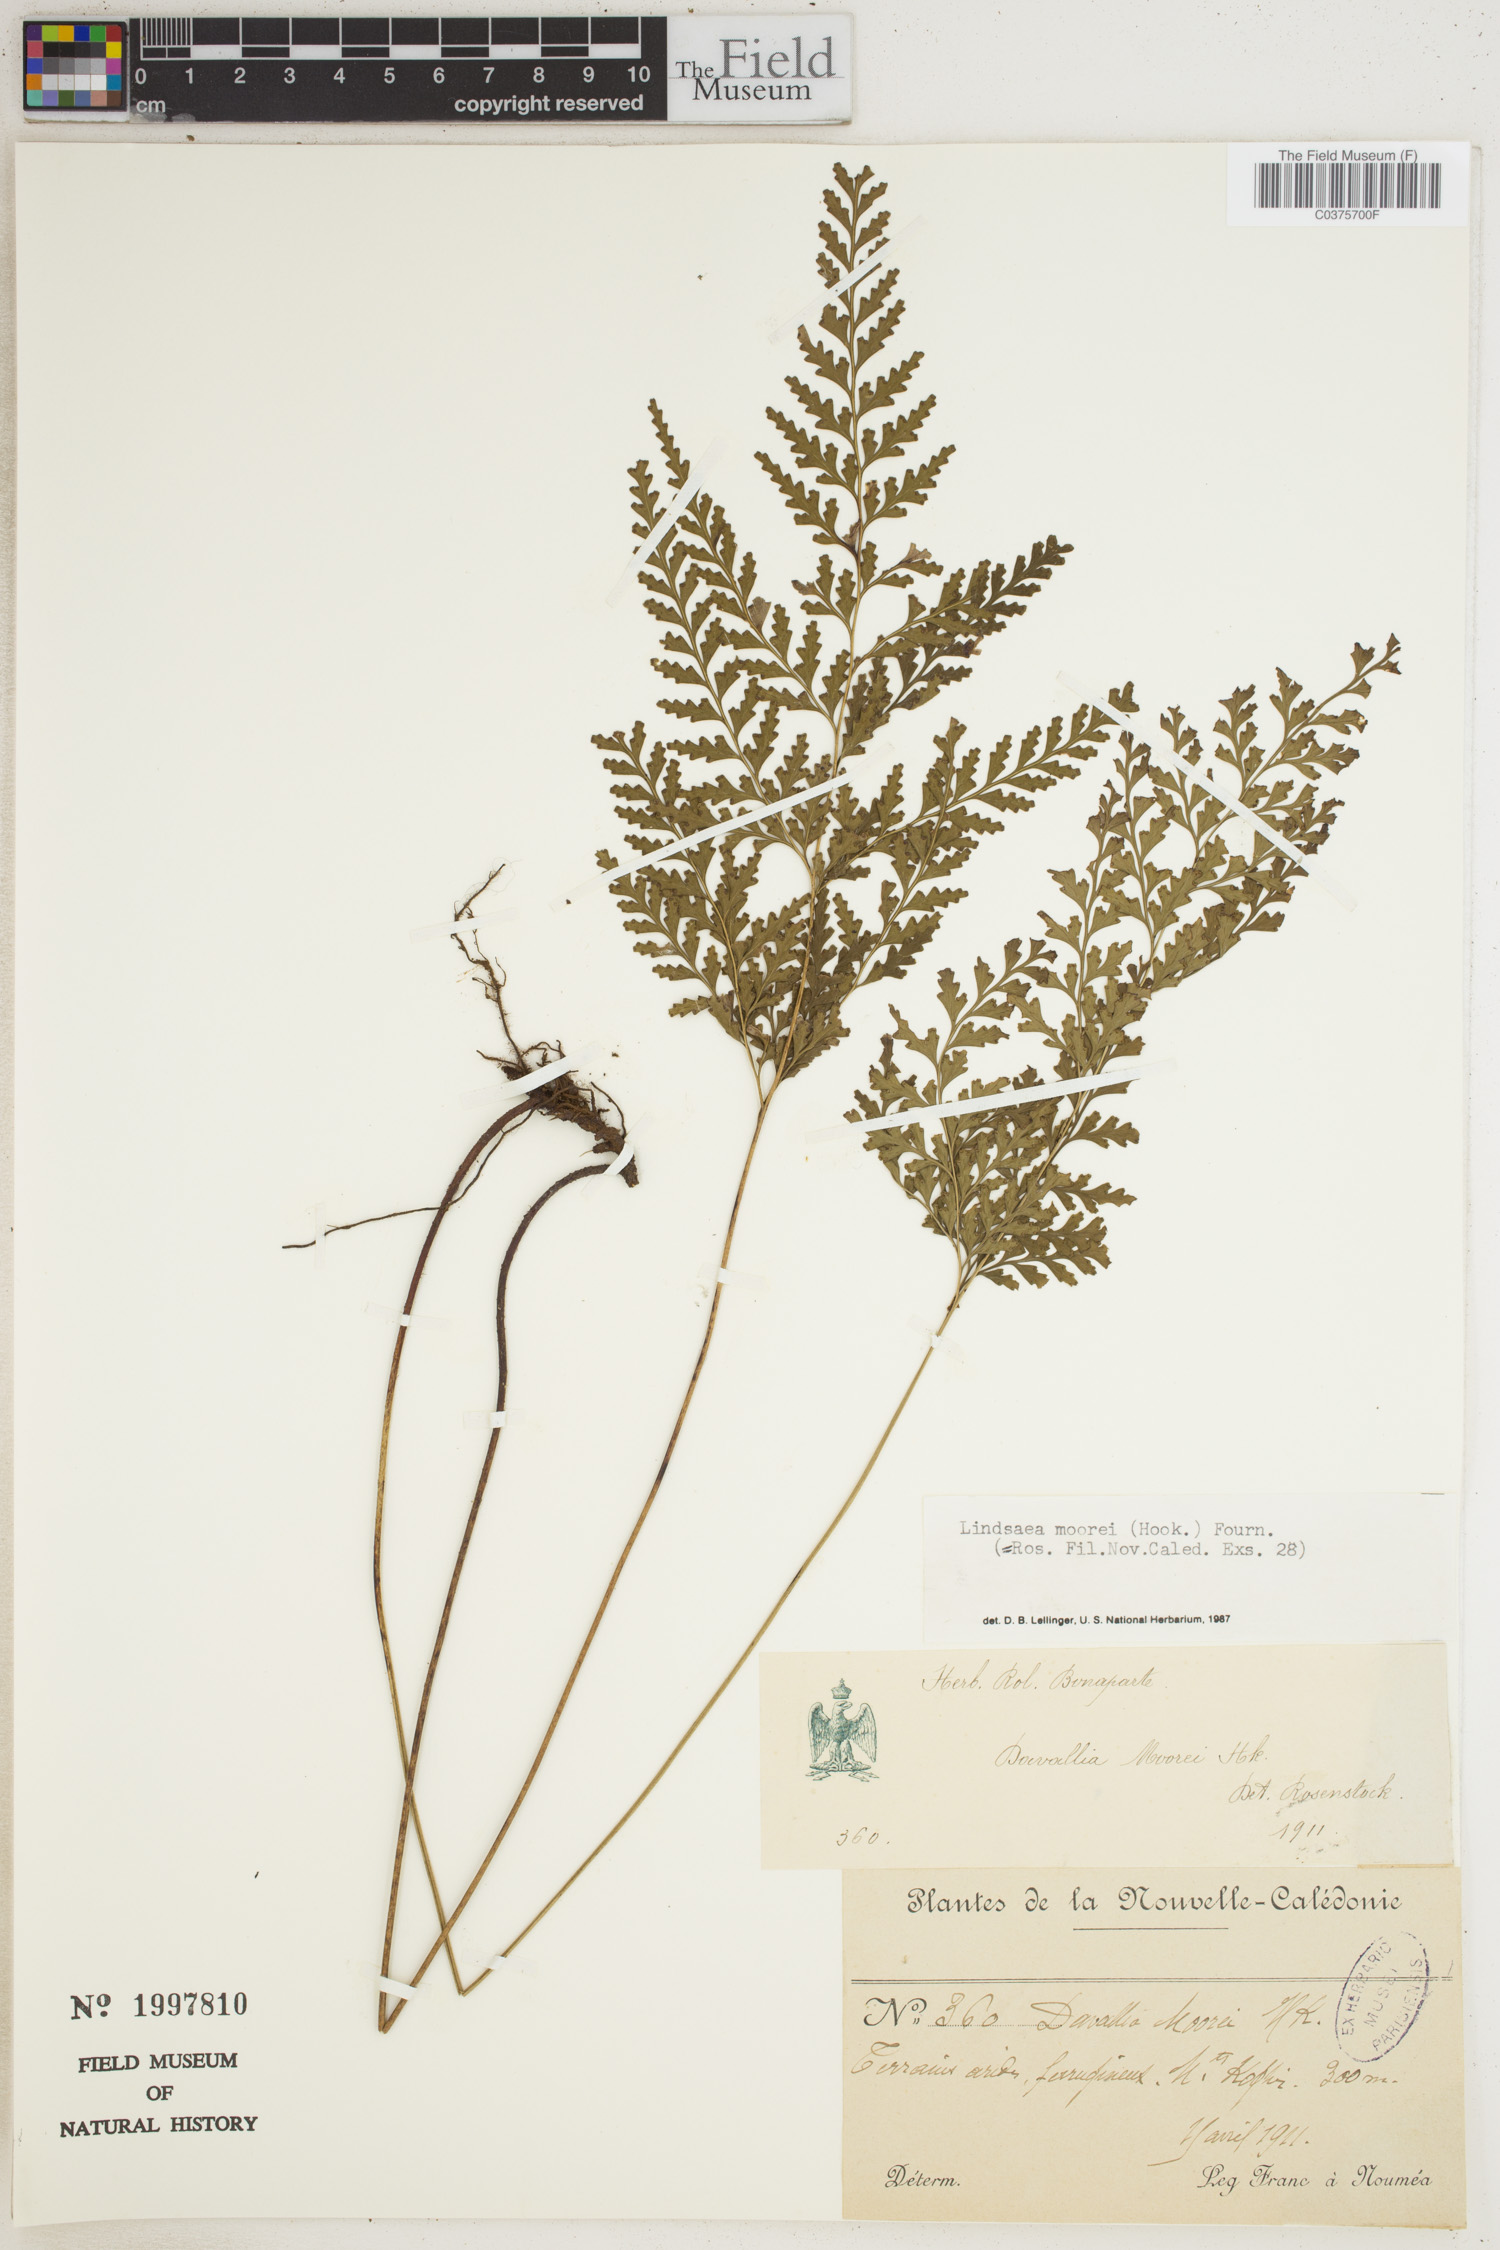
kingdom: Plantae
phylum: Tracheophyta
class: Polypodiopsida
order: Polypodiales
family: Aspleniaceae
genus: Asplenium
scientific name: Asplenium dielmannii
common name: Mann's island spleenwort
